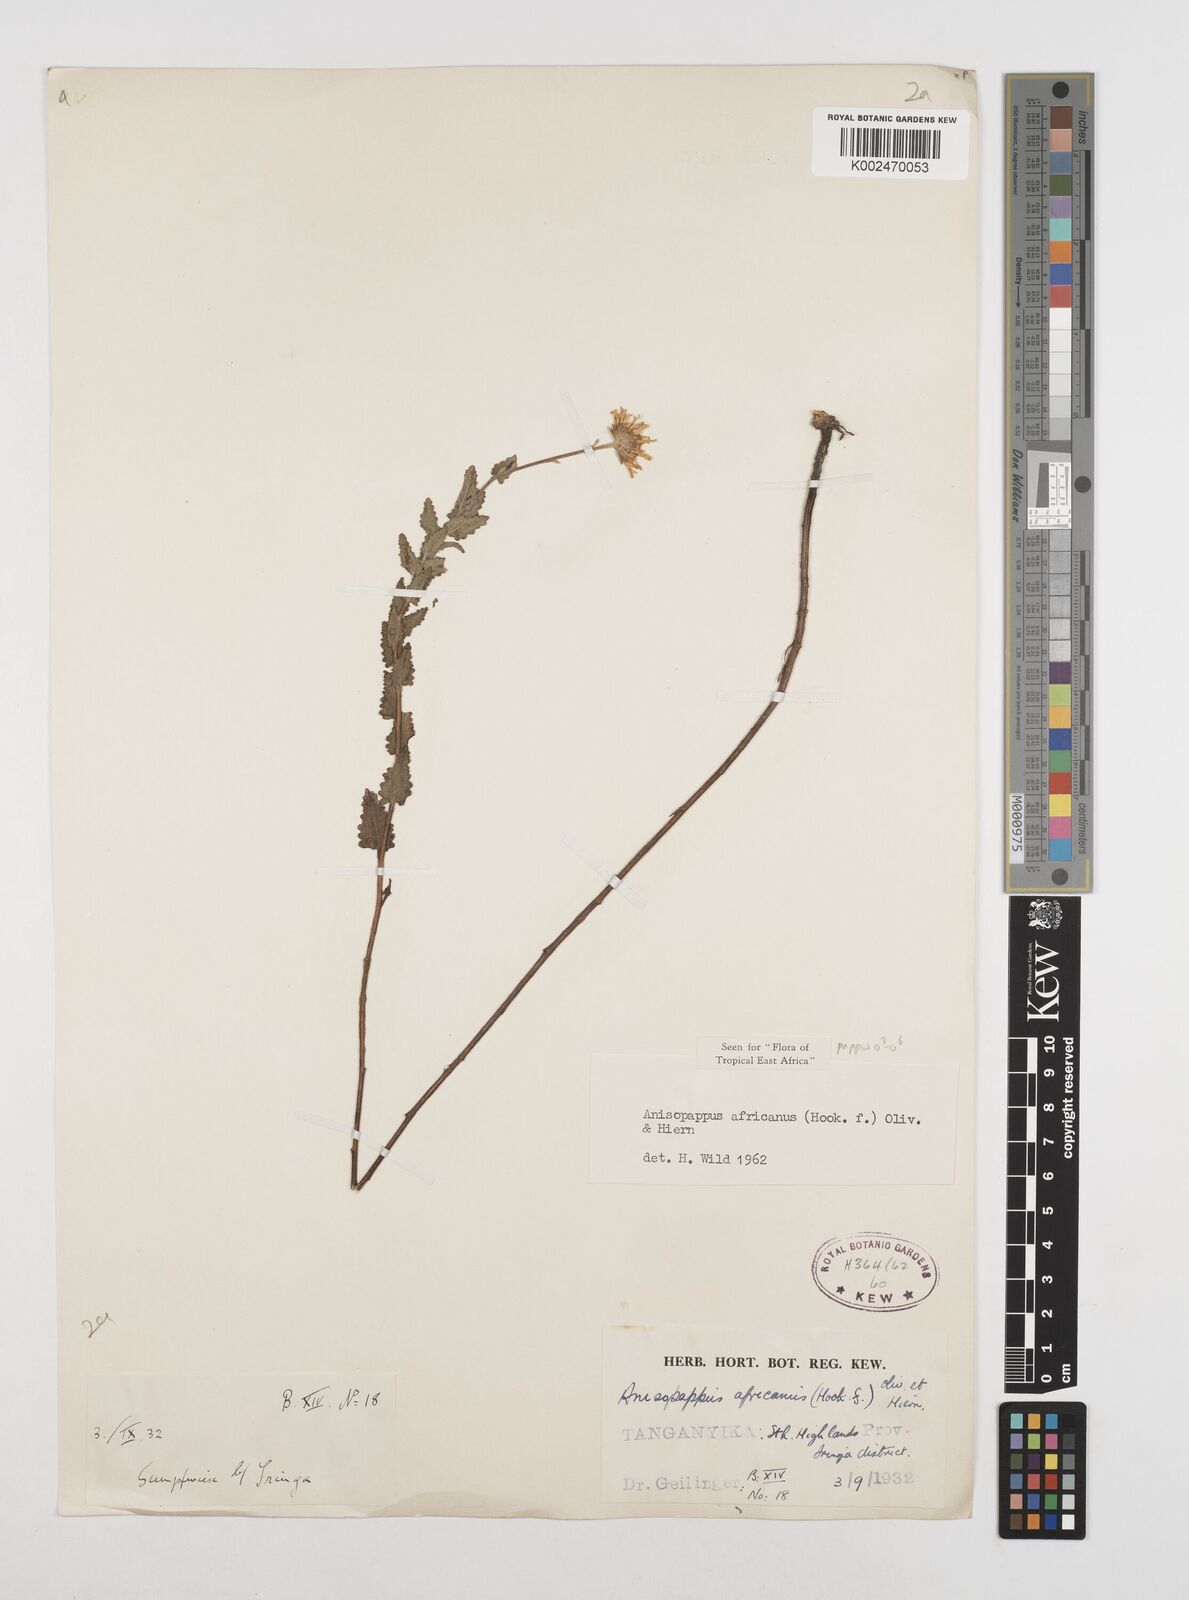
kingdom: Plantae
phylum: Tracheophyta
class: Magnoliopsida
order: Asterales
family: Asteraceae
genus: Anisopappus
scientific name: Anisopappus buchwaldii
